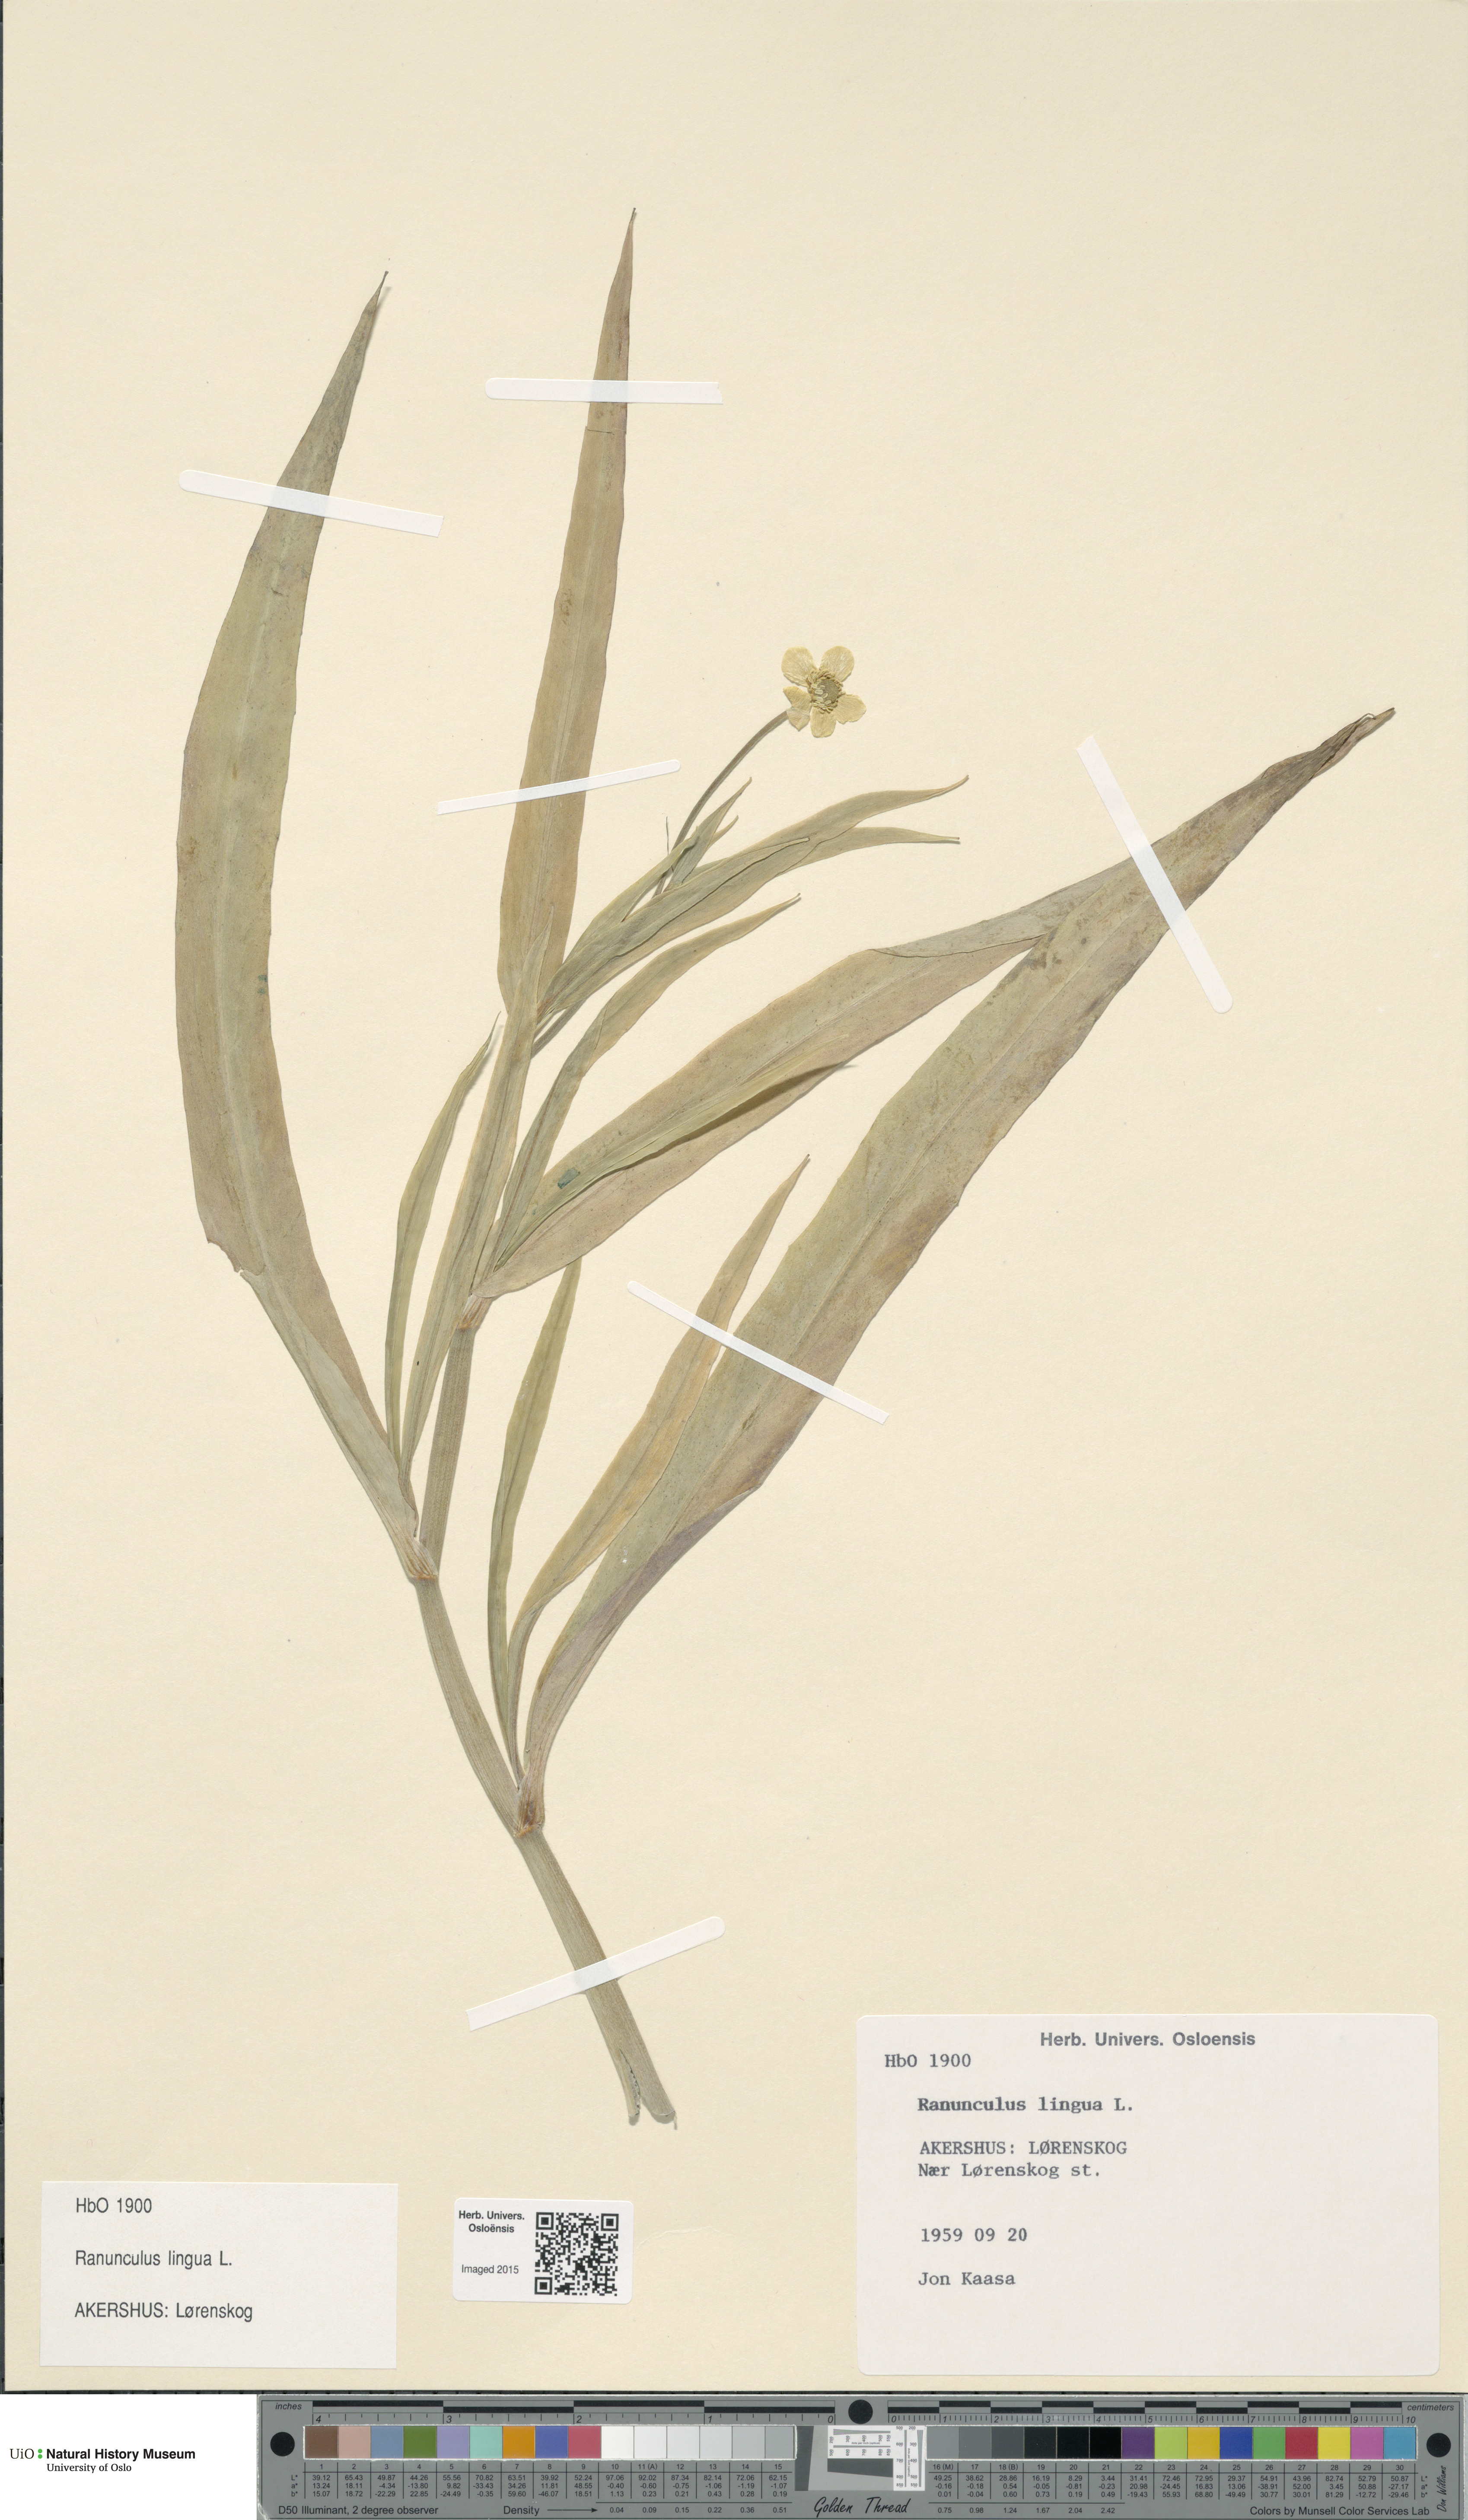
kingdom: Plantae
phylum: Tracheophyta
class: Magnoliopsida
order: Ranunculales
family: Ranunculaceae
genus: Ranunculus
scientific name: Ranunculus lingua
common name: Greater spearwort
